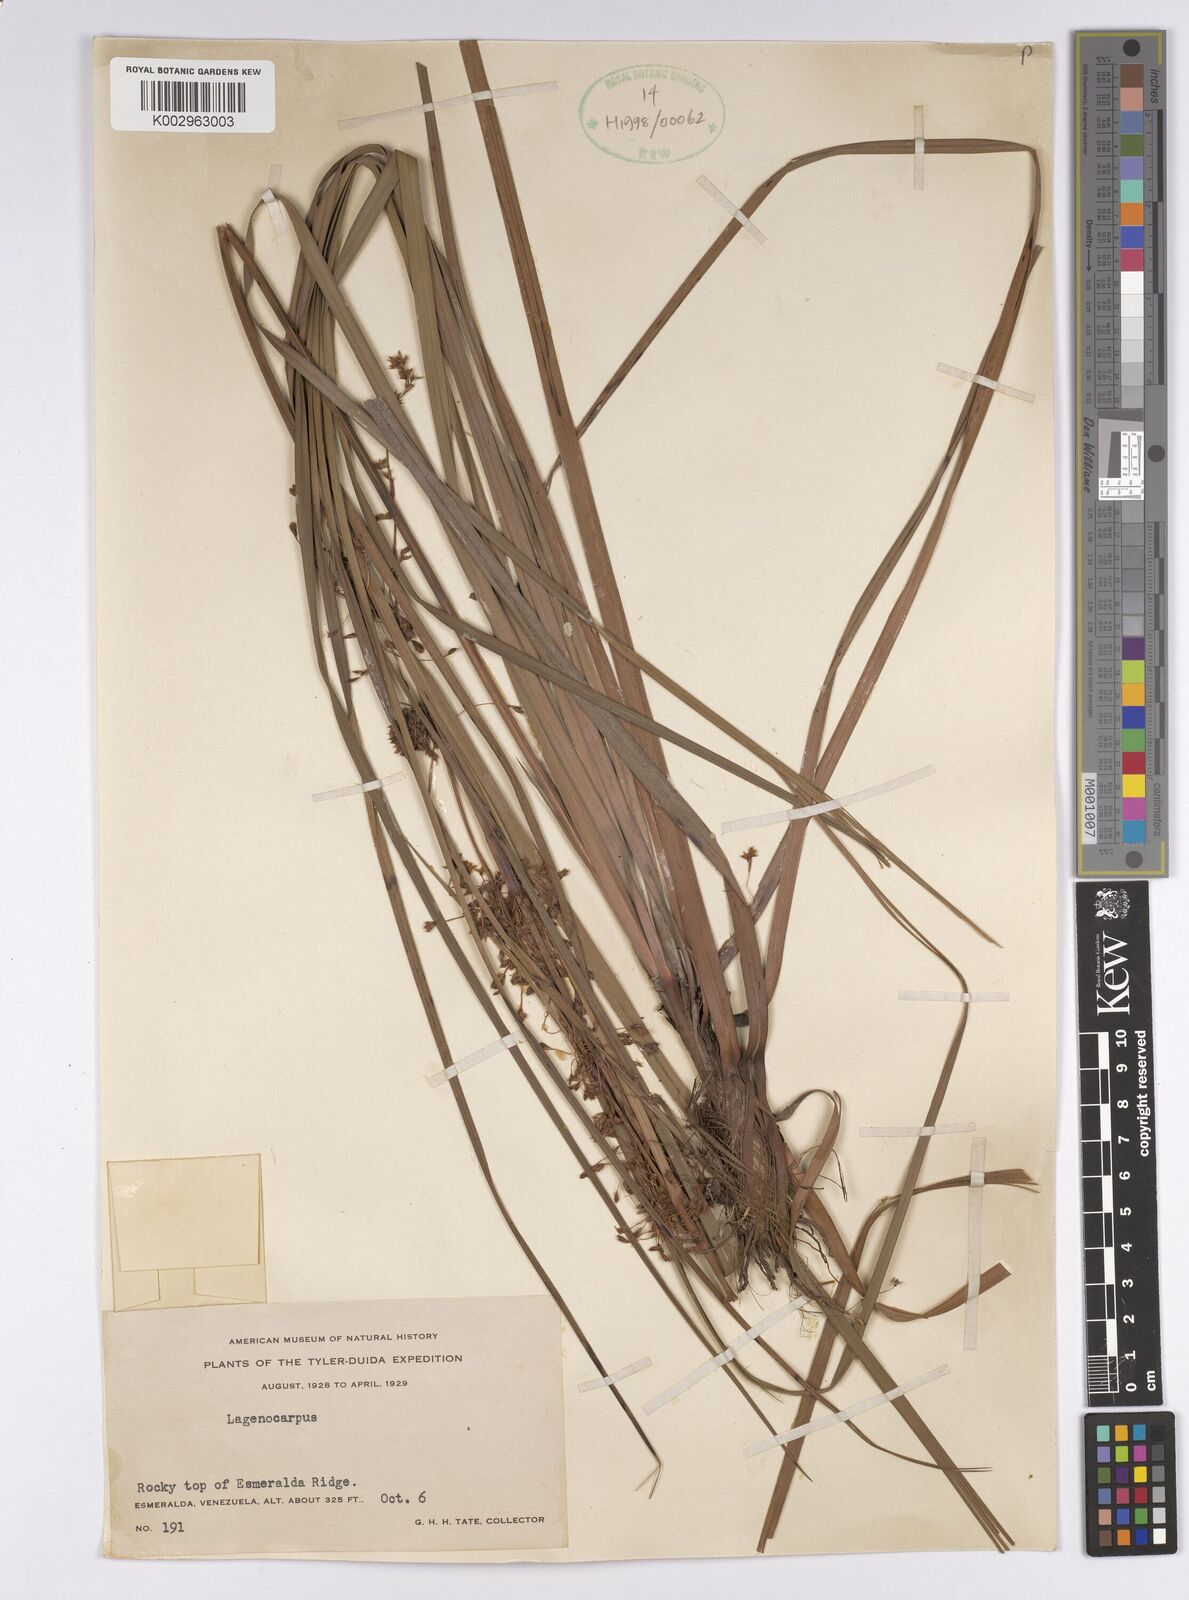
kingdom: Plantae
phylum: Tracheophyta
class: Liliopsida
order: Poales
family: Cyperaceae
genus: Lagenocarpus
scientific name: Lagenocarpus
